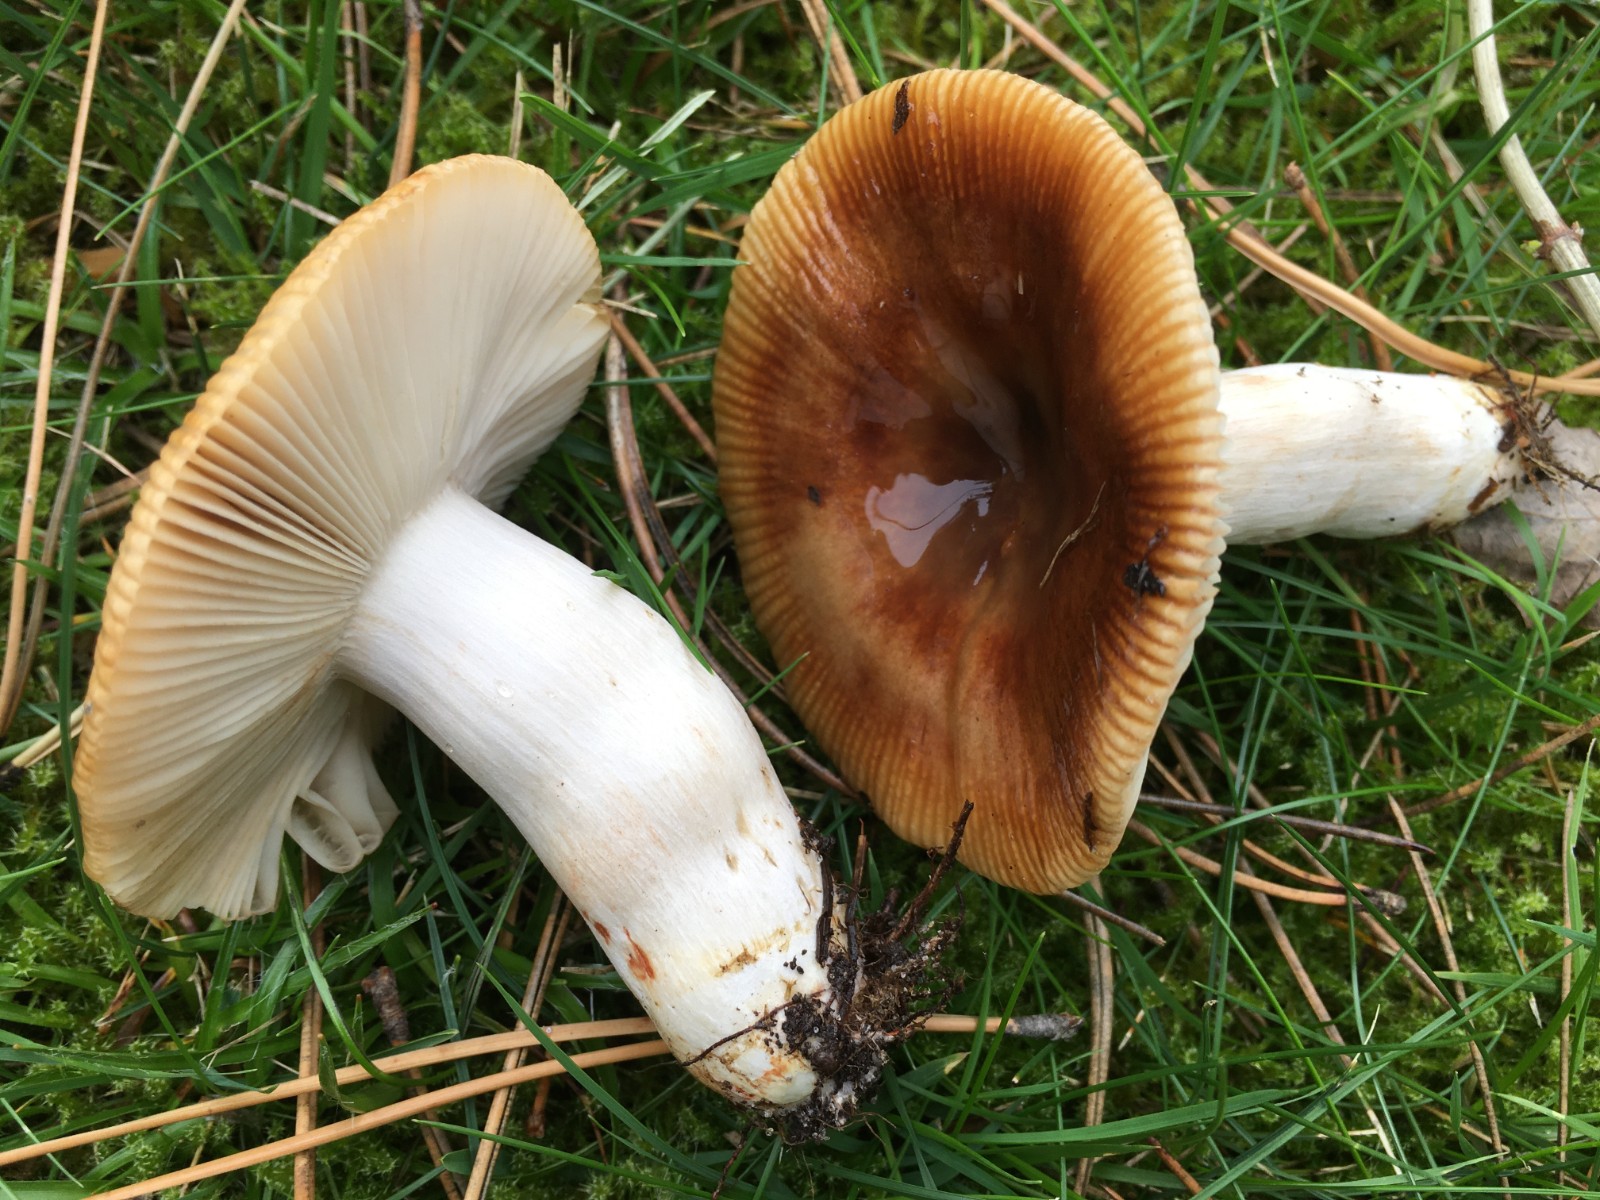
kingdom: Fungi
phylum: Basidiomycota
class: Agaricomycetes
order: Russulales
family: Russulaceae
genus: Russula
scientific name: Russula recondita
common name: mild kam-skørhat
